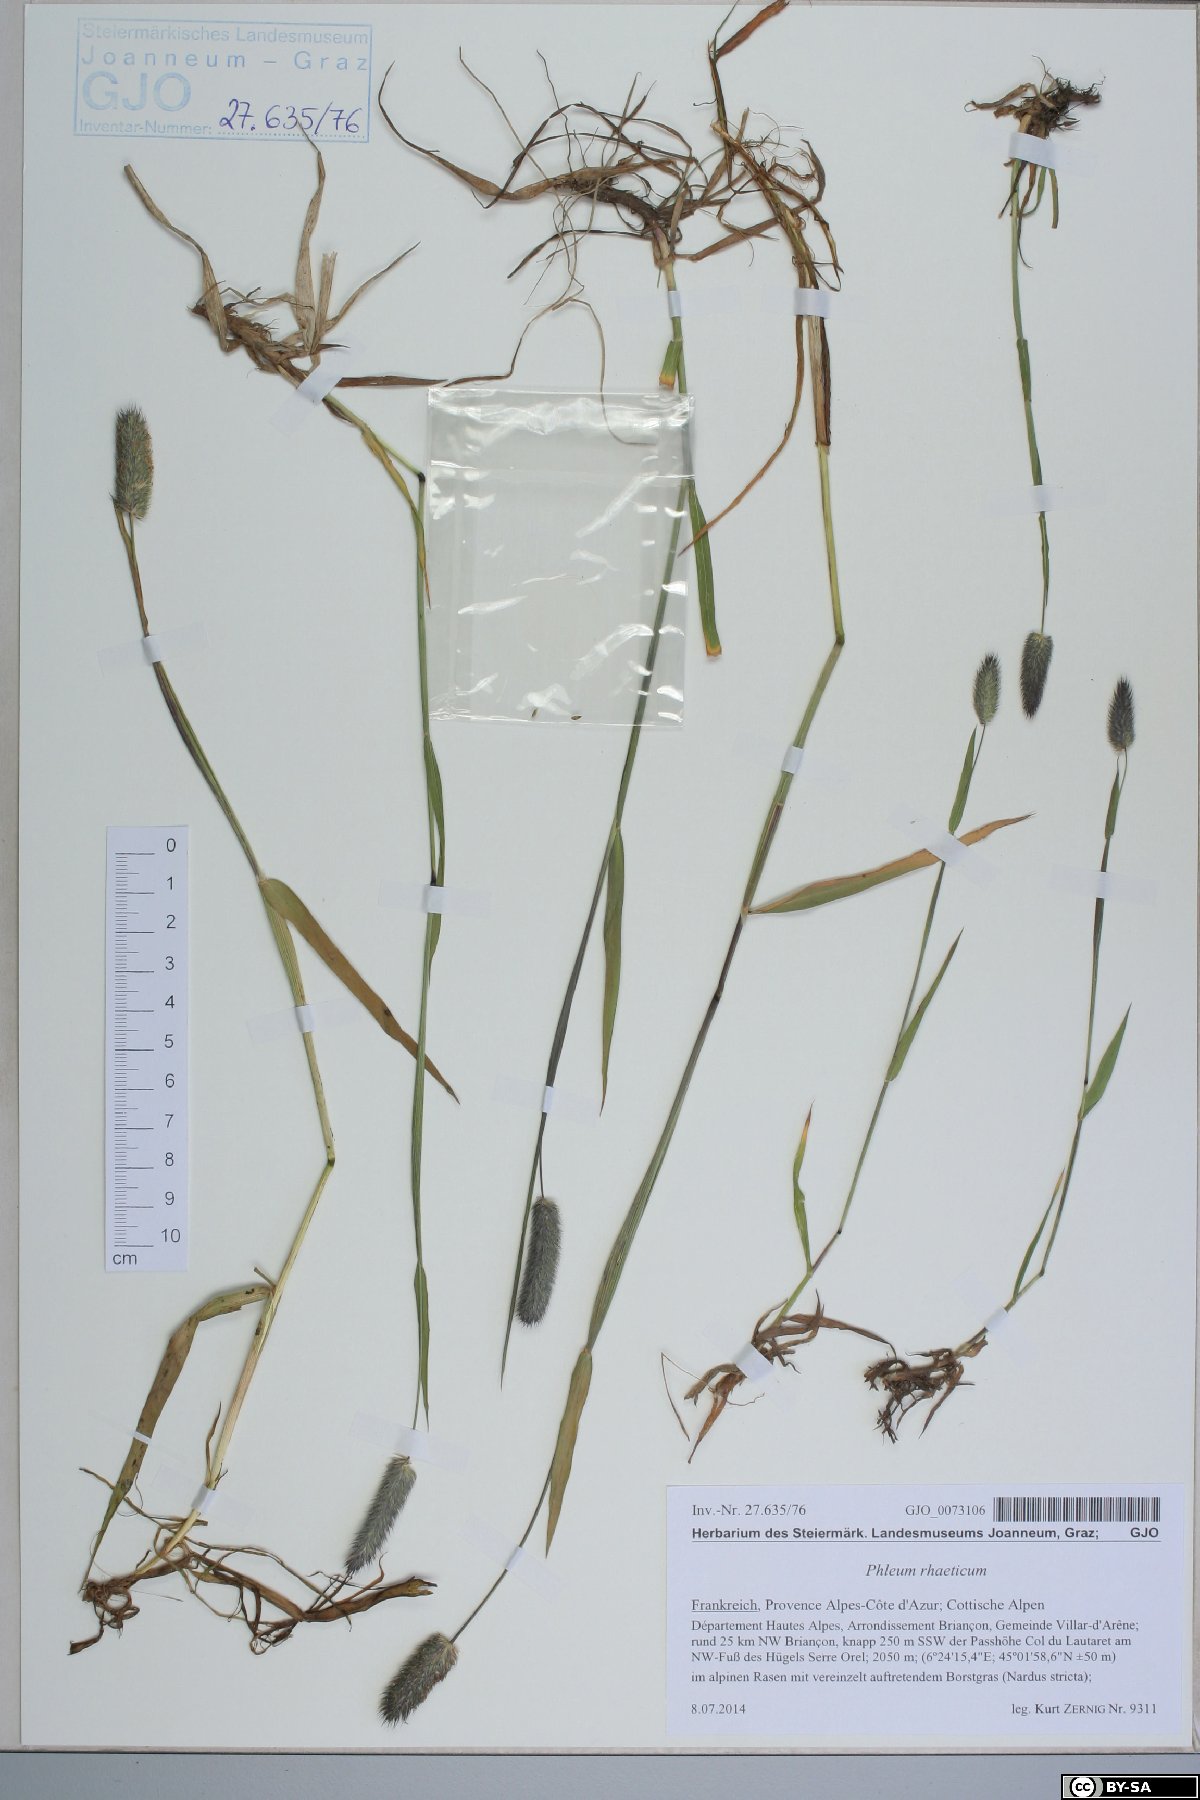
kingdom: Plantae
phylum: Tracheophyta
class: Liliopsida
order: Poales
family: Poaceae
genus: Phleum
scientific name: Phleum alpinum
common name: Alpine cat's-tail
